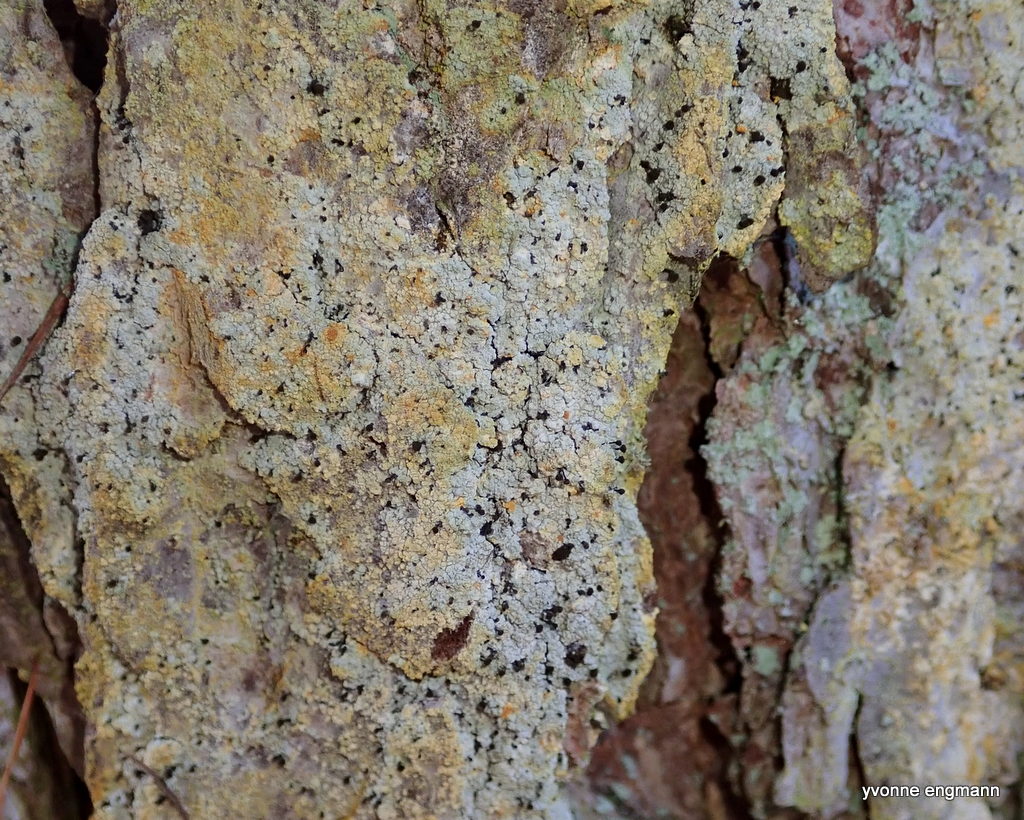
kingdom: Fungi
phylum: Ascomycota
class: Coniocybomycetes
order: Coniocybales
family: Coniocybaceae
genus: Chaenotheca
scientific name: Chaenotheca ferruginea
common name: rustbrun knappenålslav
